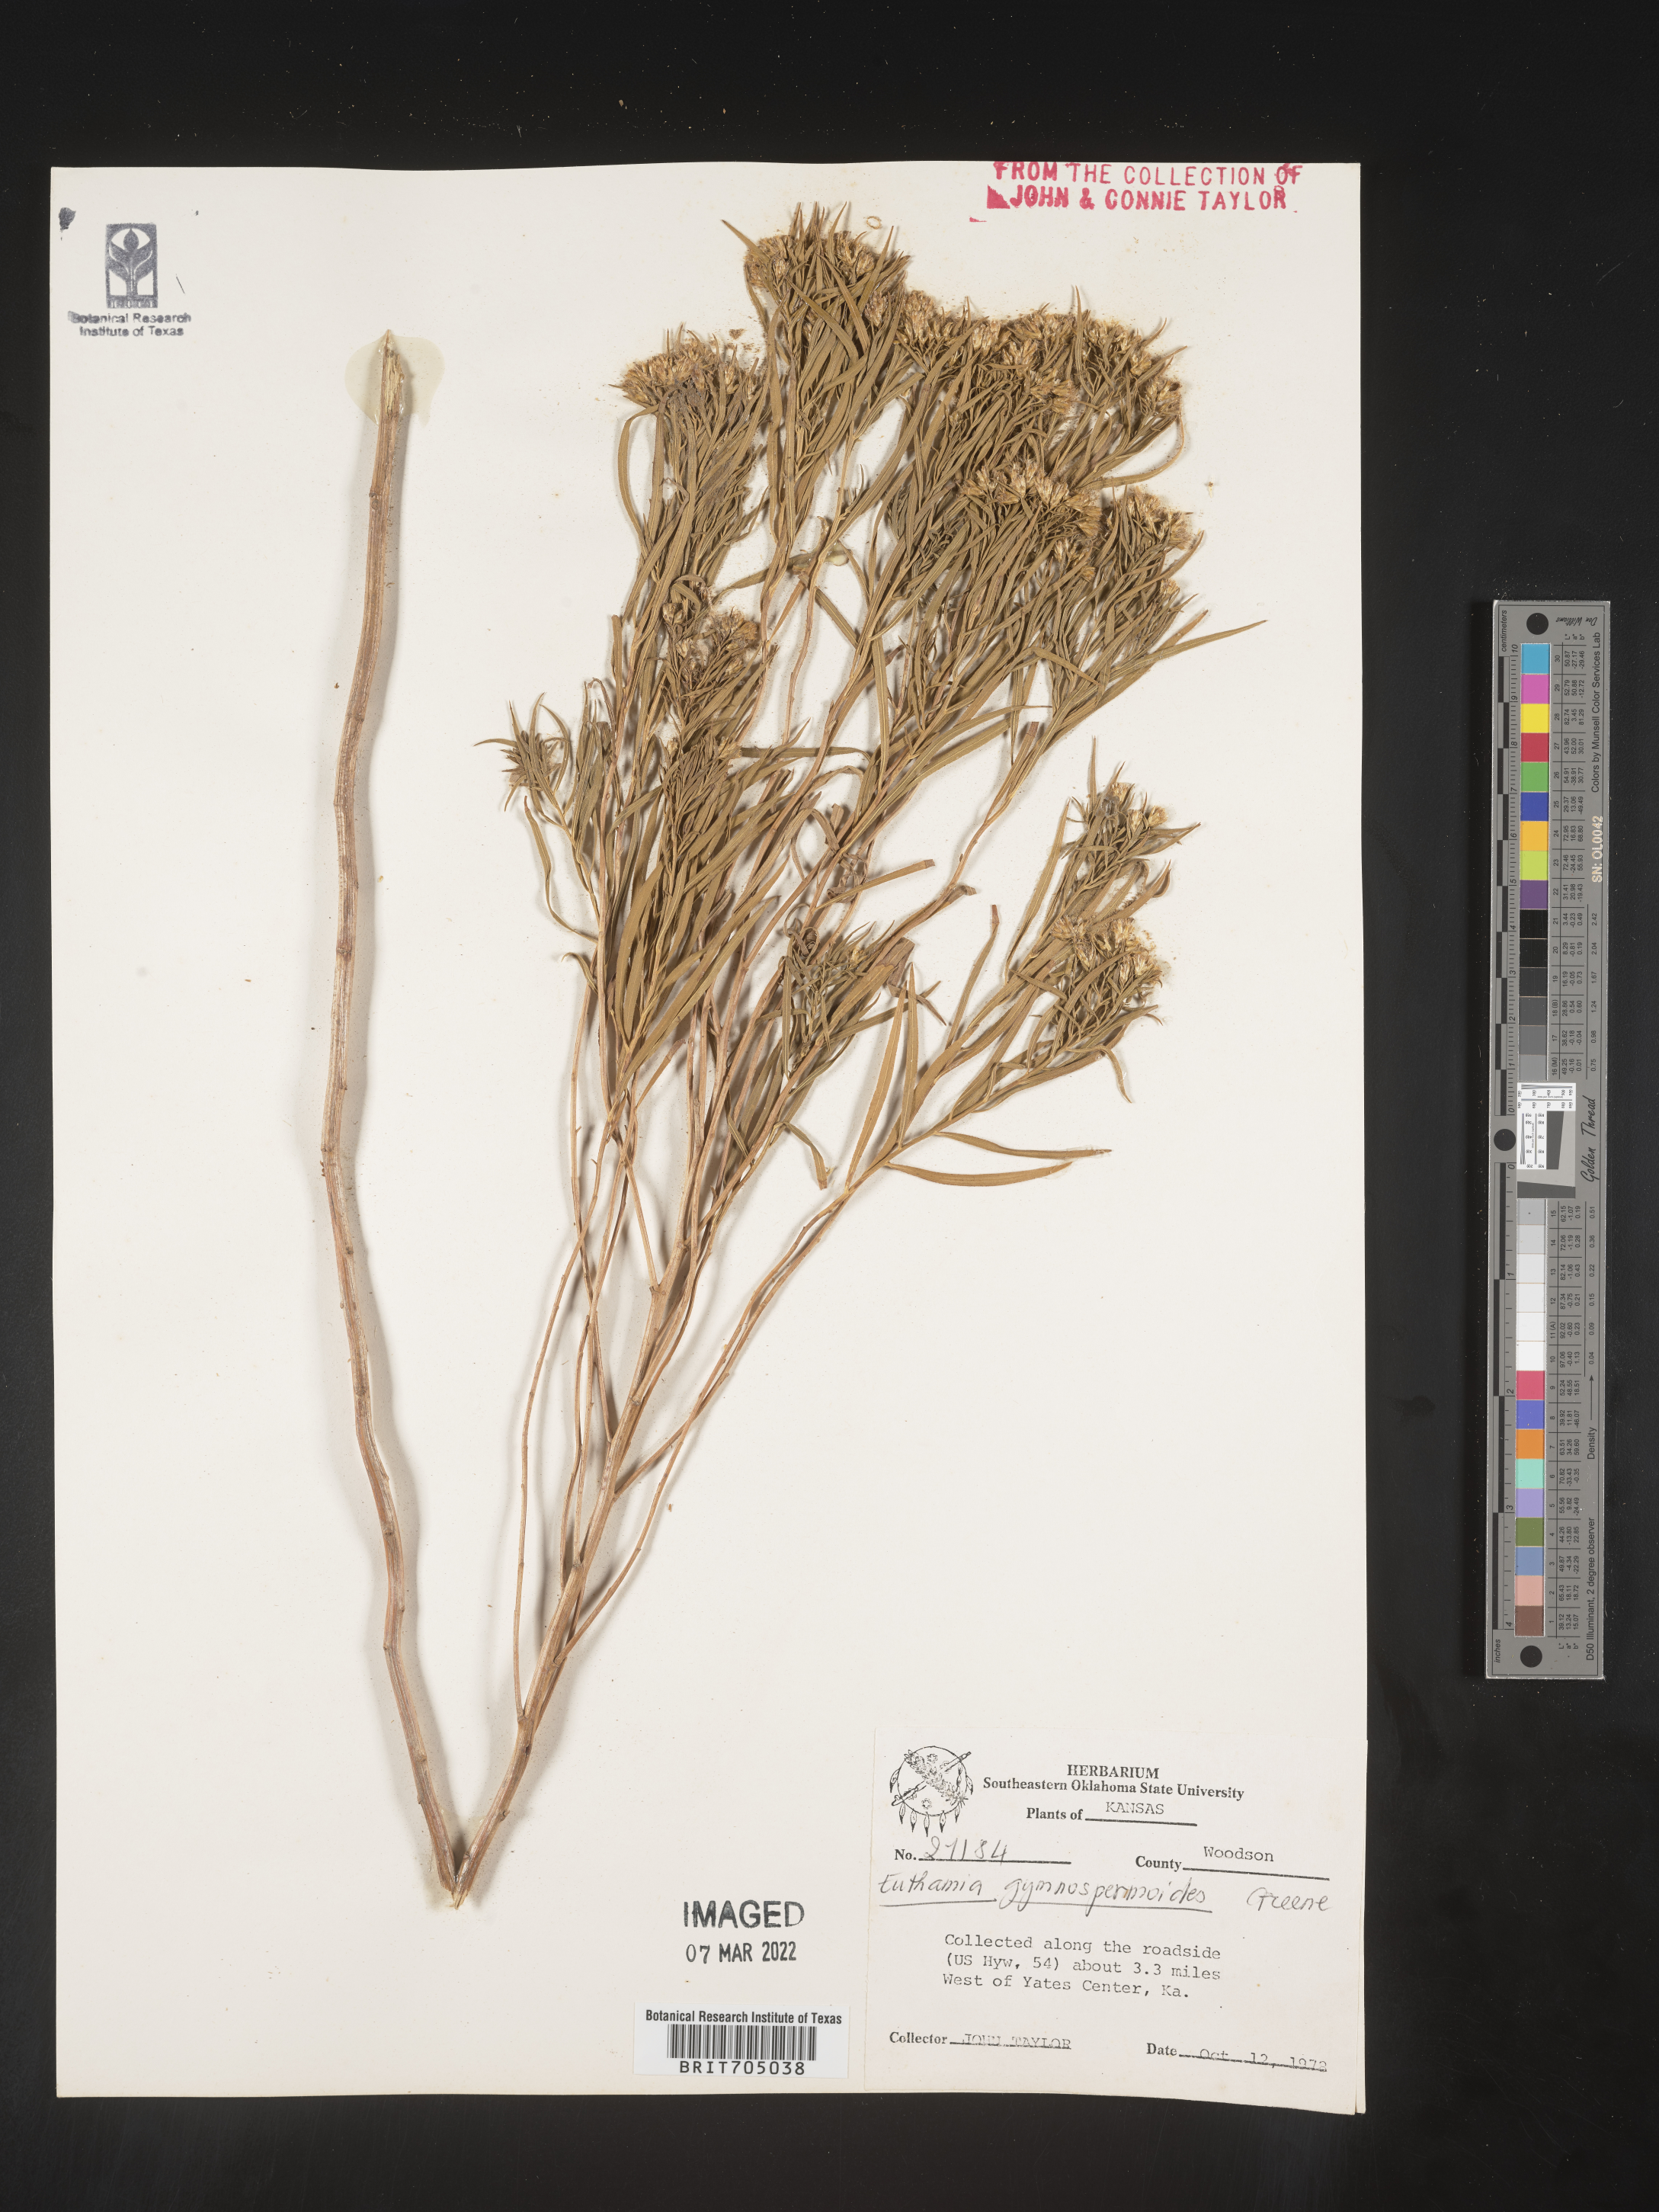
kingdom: Plantae
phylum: Tracheophyta
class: Magnoliopsida
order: Asterales
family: Asteraceae
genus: Euthamia
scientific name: Euthamia gymnospermoides
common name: Great plains goldentop
